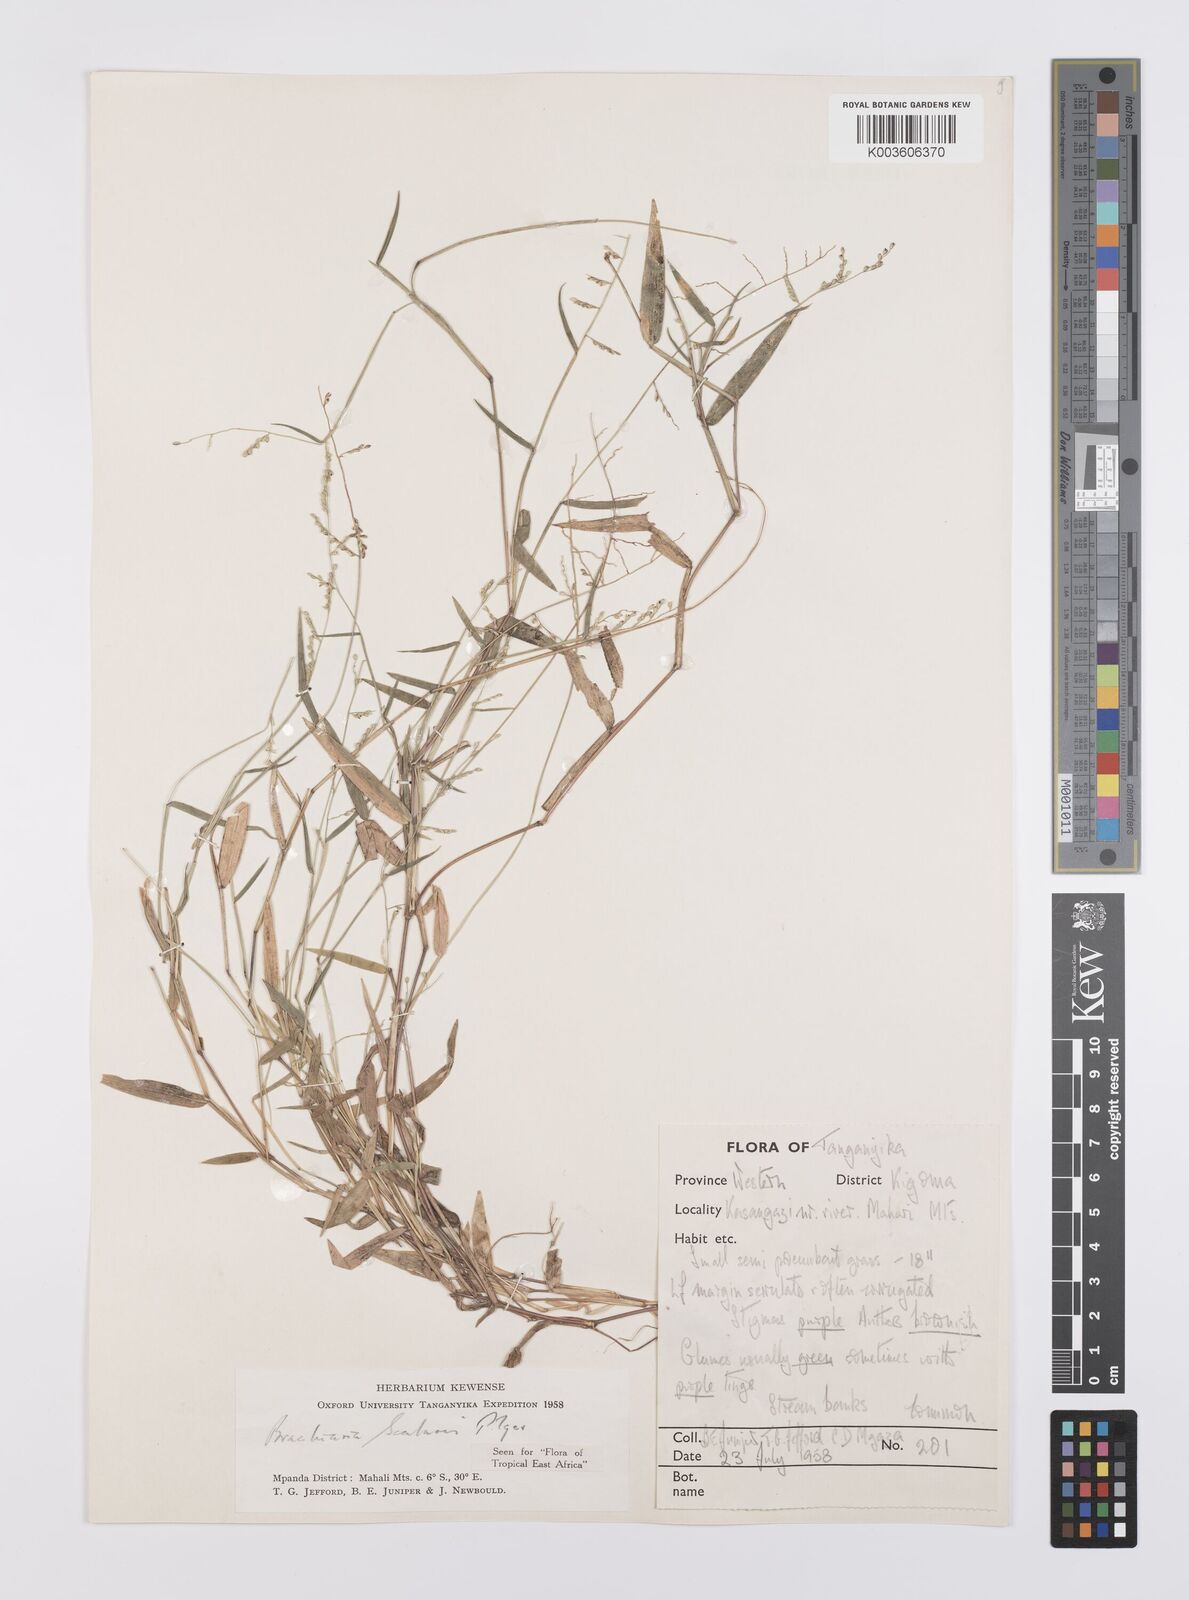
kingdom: Plantae
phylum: Tracheophyta
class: Liliopsida
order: Poales
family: Poaceae
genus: Urochloa
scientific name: Urochloa comata
